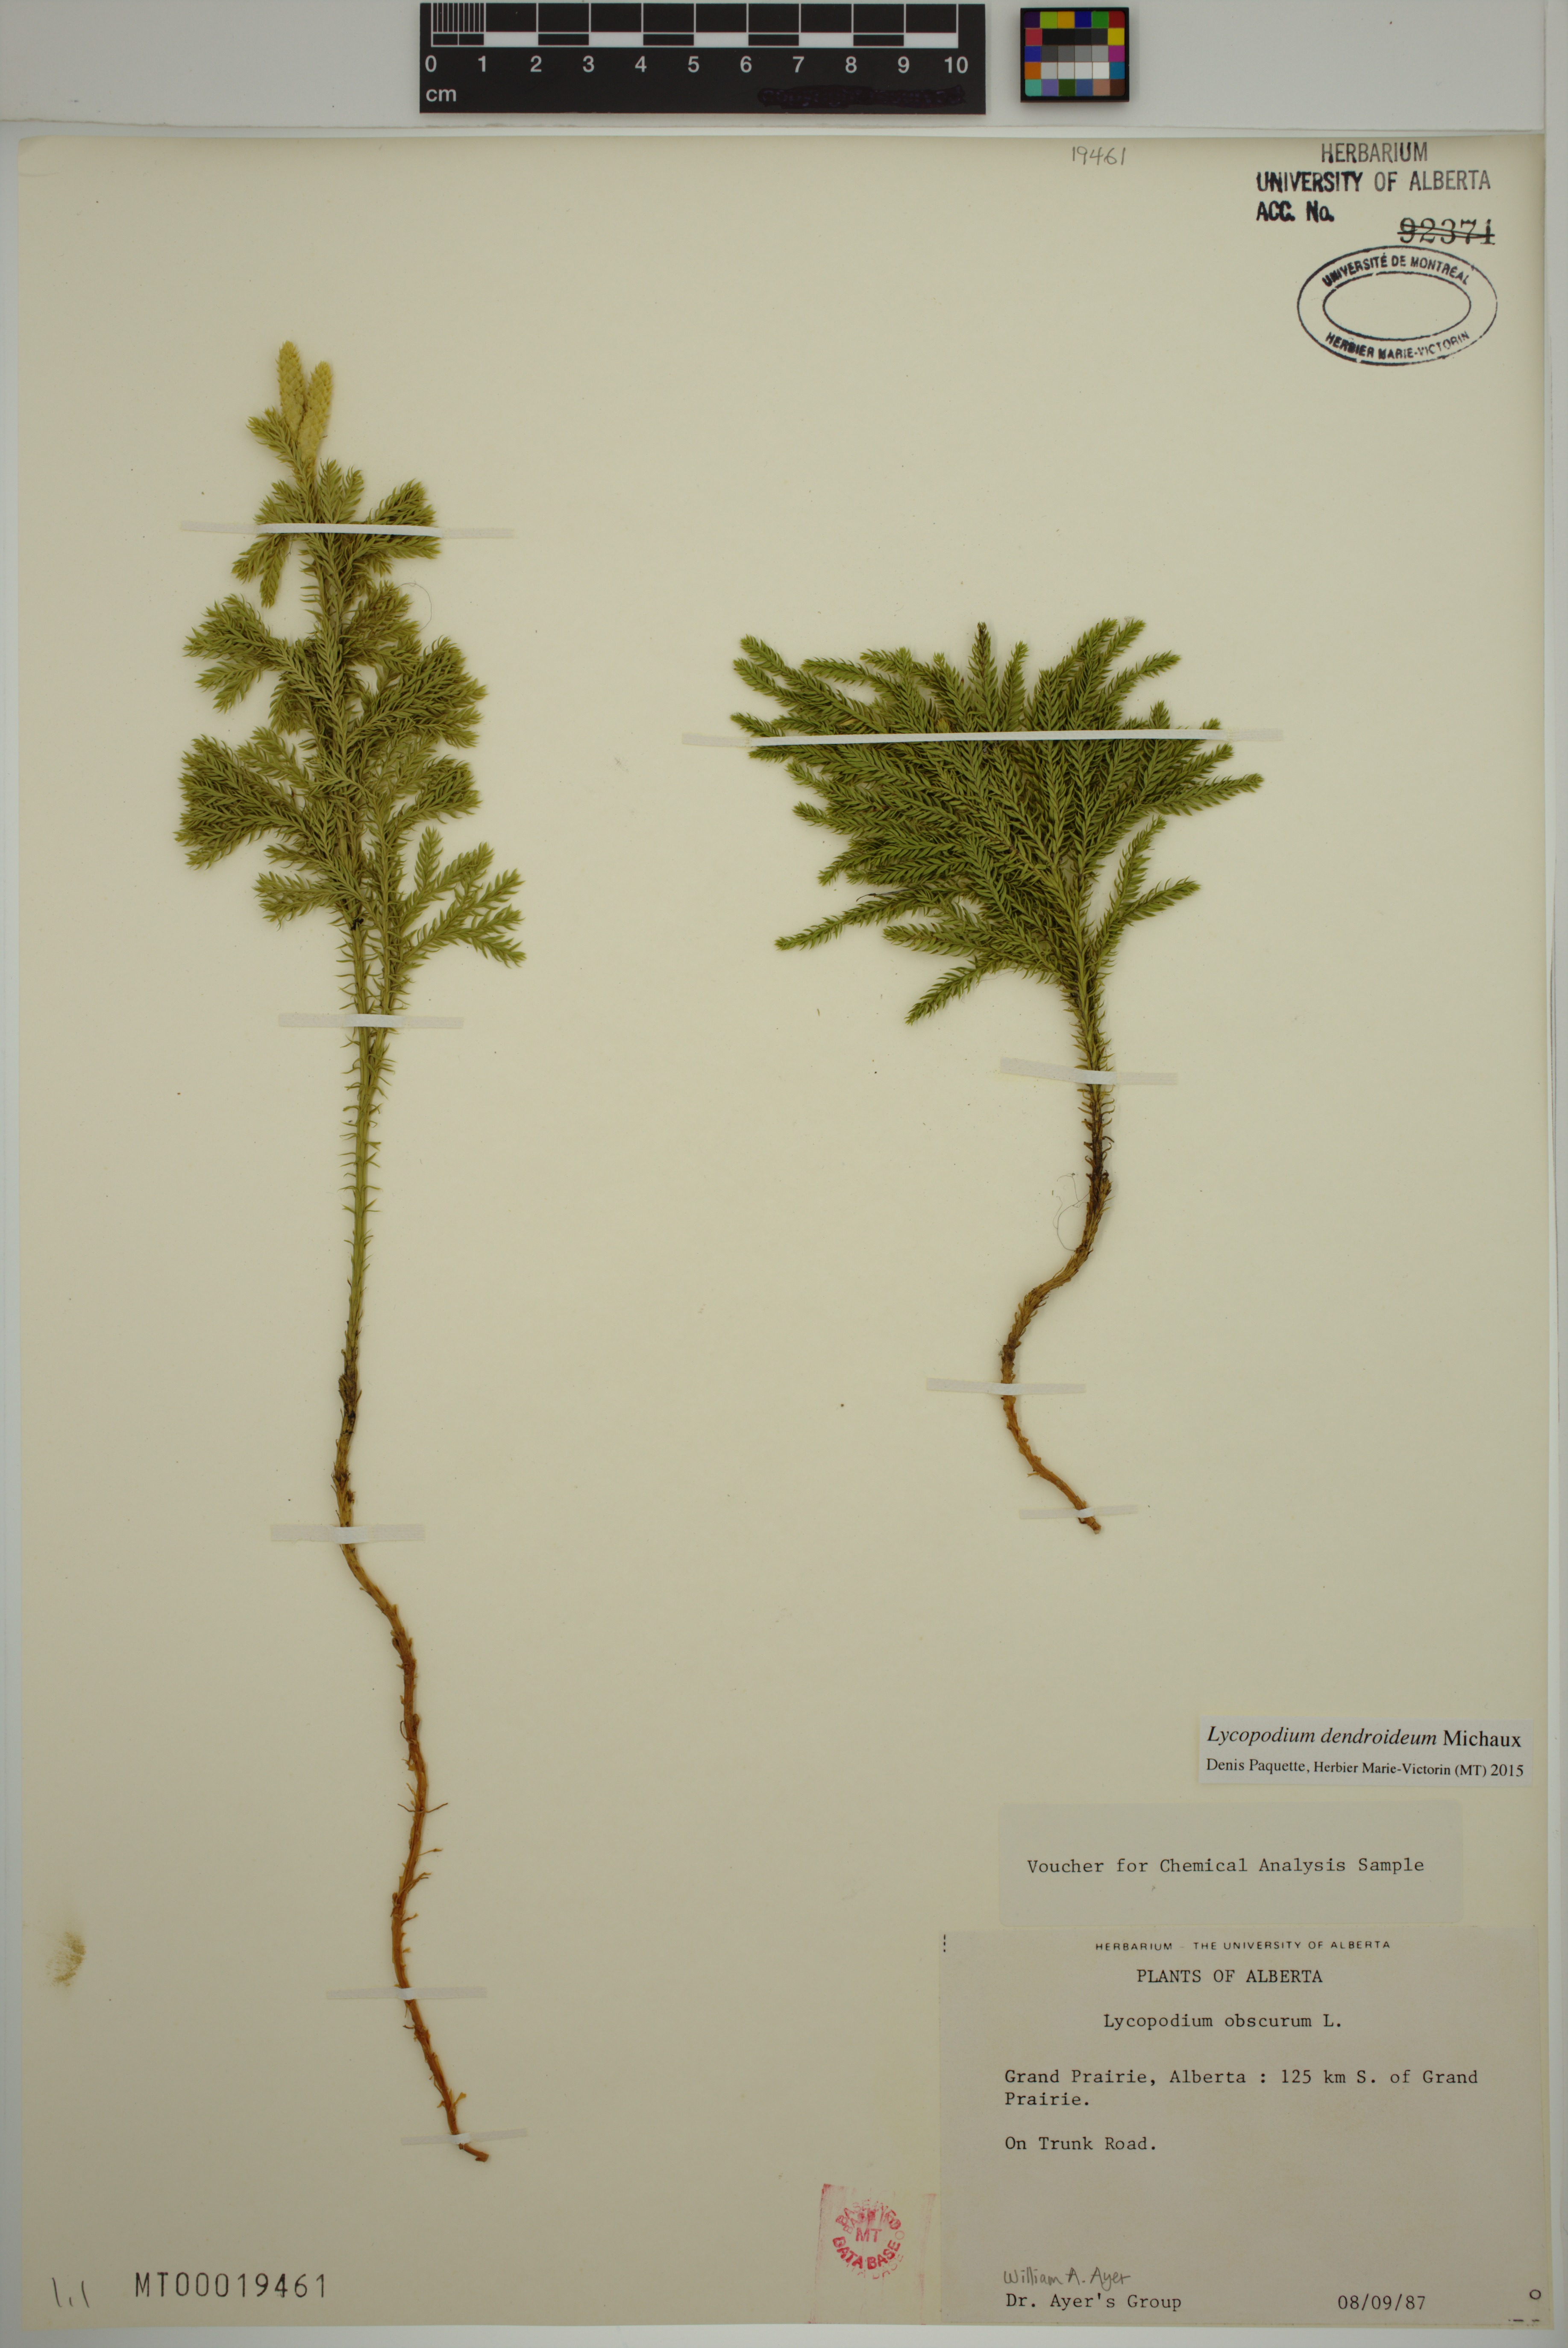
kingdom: Plantae
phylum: Tracheophyta
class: Lycopodiopsida
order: Lycopodiales
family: Lycopodiaceae
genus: Dendrolycopodium
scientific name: Dendrolycopodium dendroideum
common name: Northern tree-clubmoss
